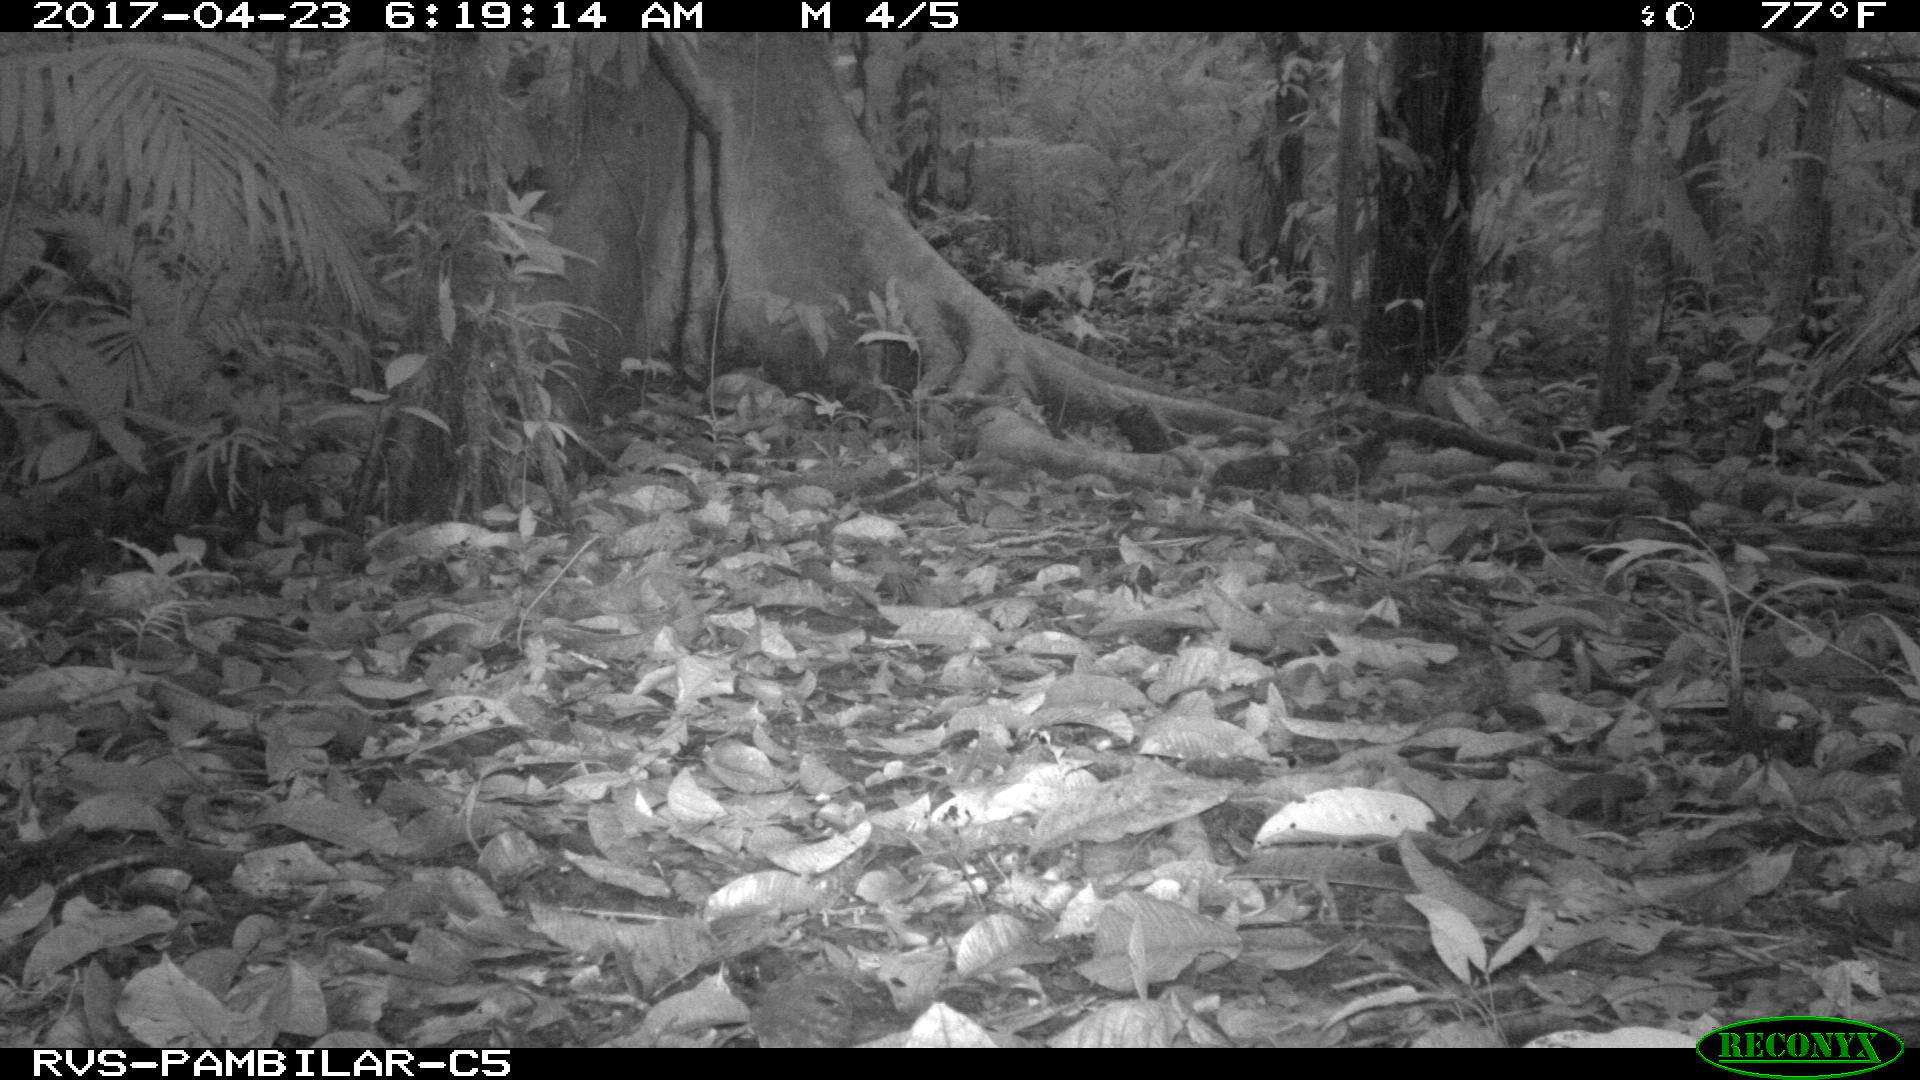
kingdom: Animalia
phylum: Chordata
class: Mammalia
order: Rodentia
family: Dasyproctidae
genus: Dasyprocta
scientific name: Dasyprocta punctata
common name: Central american agouti
